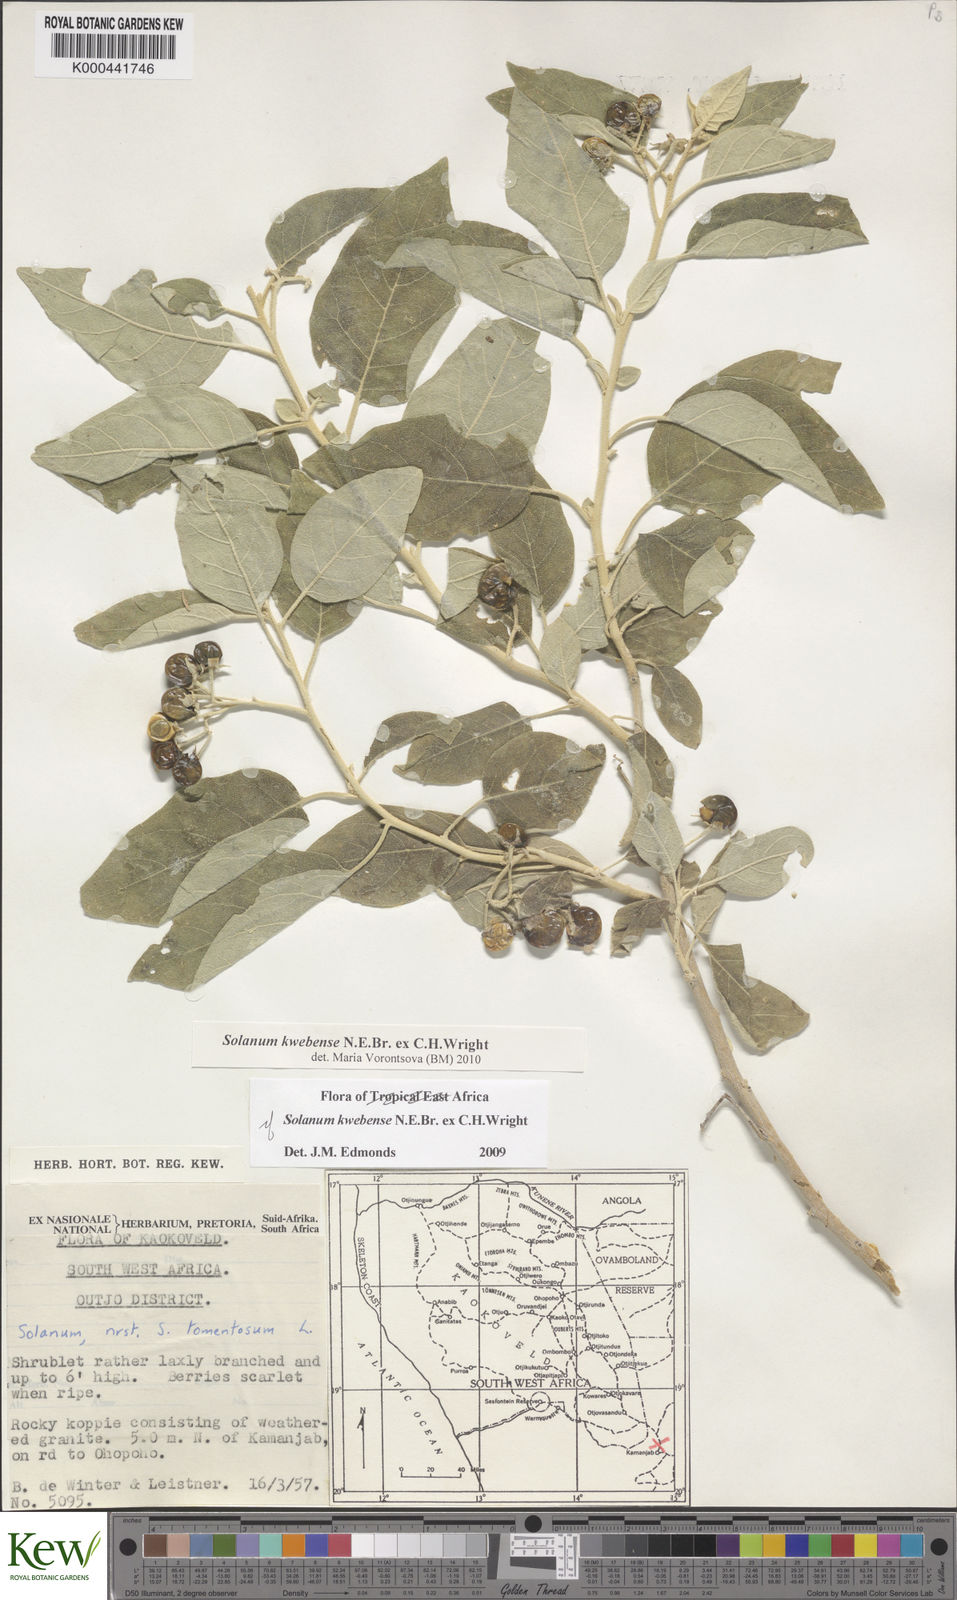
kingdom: Plantae
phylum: Tracheophyta
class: Magnoliopsida
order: Solanales
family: Solanaceae
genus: Solanum
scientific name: Solanum tettense
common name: Mozambique bitter apple
